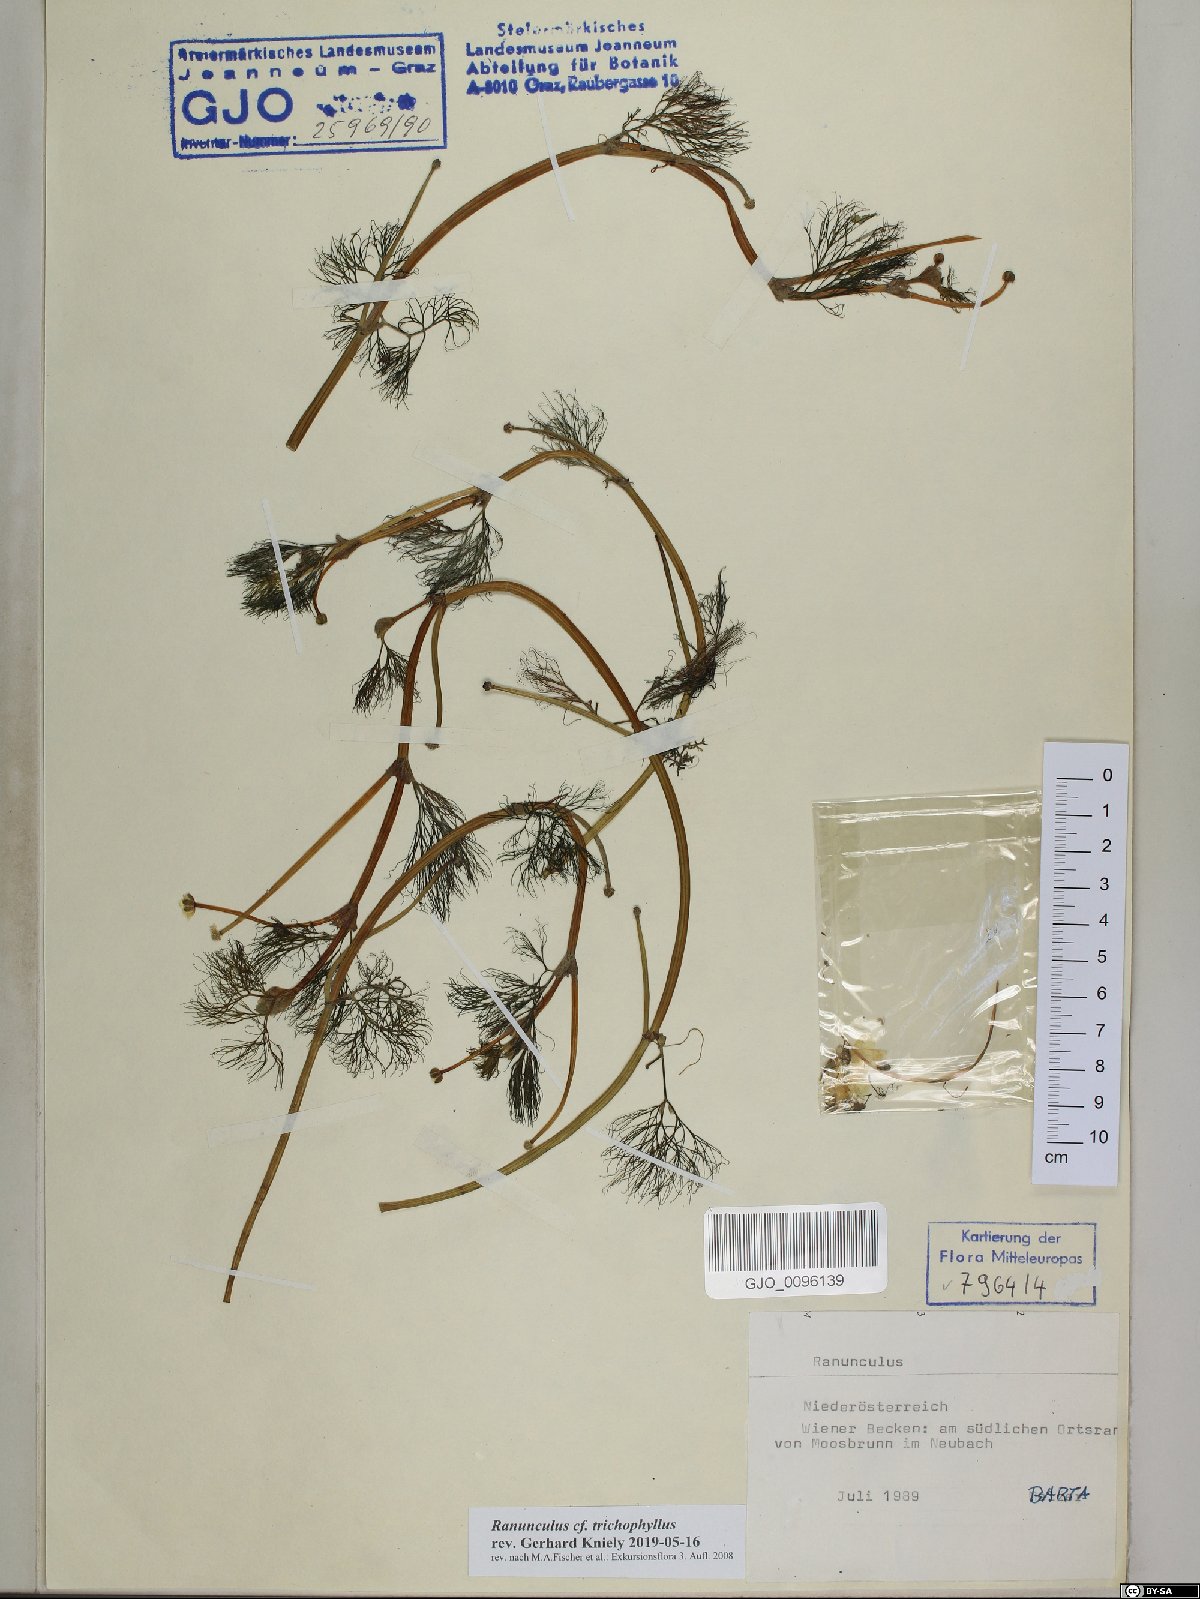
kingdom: Plantae
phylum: Tracheophyta
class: Magnoliopsida
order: Ranunculales
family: Ranunculaceae
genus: Ranunculus
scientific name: Ranunculus trichophyllus
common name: Thread-leaved water-crowfoot
